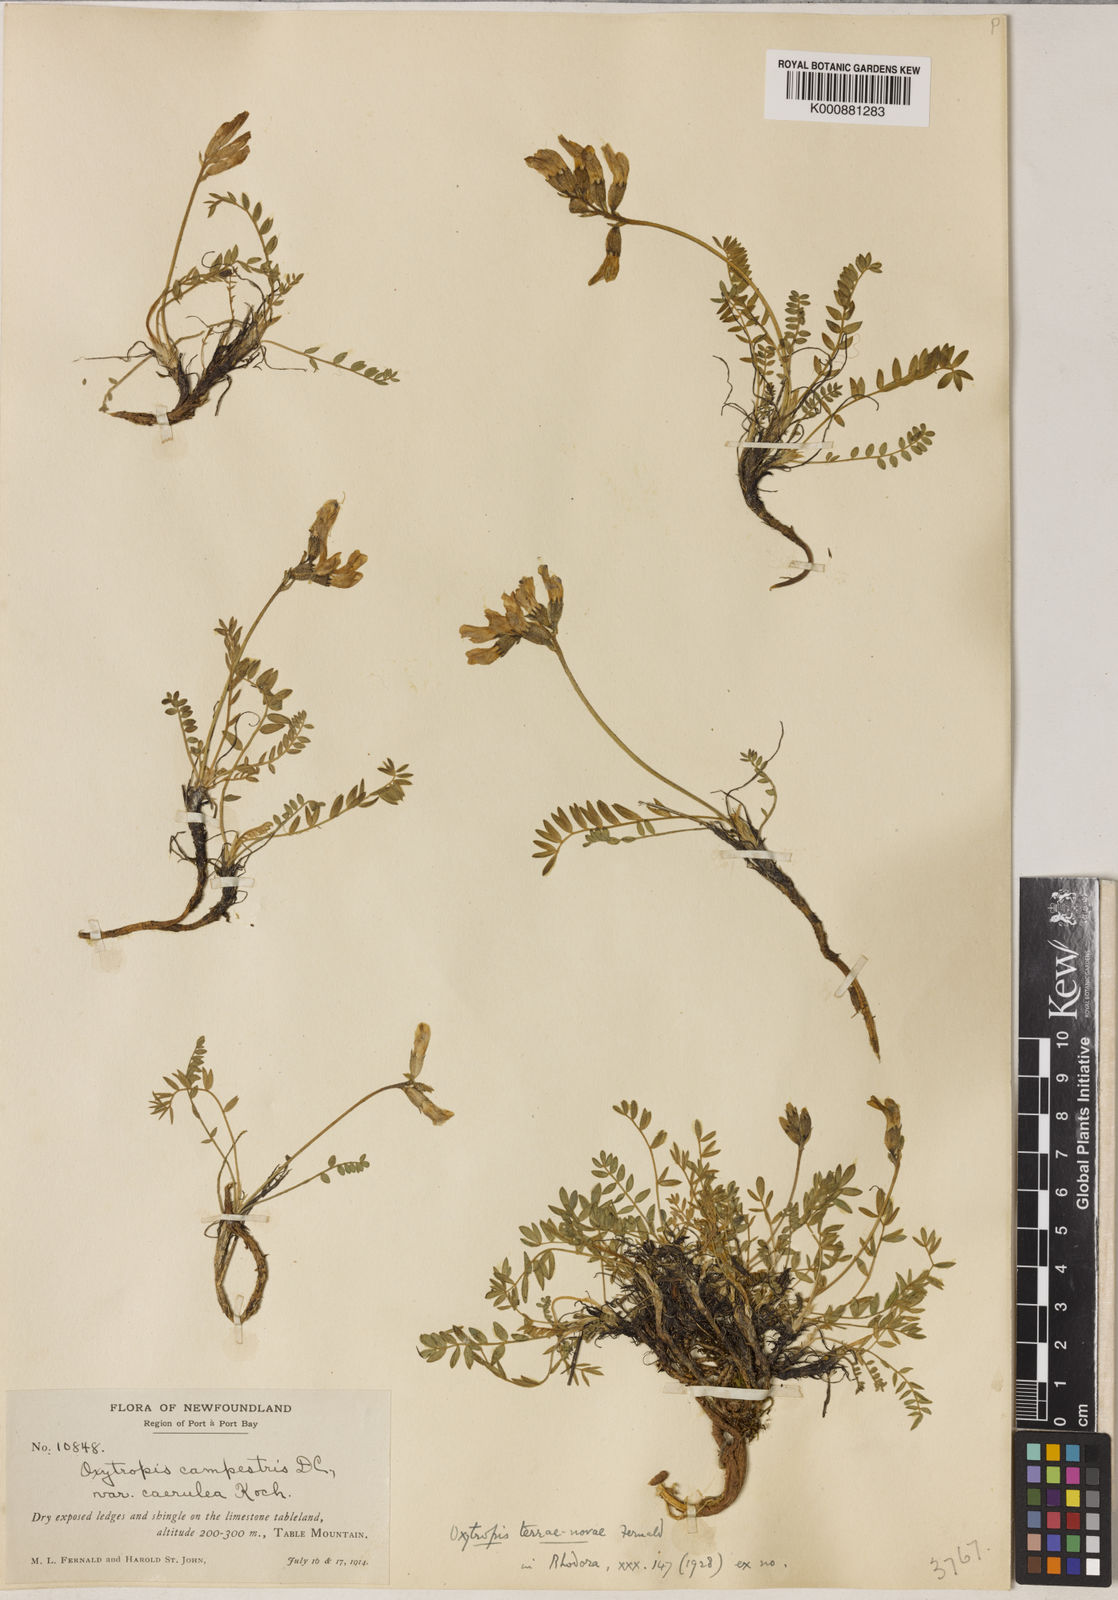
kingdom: Plantae
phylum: Tracheophyta
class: Magnoliopsida
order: Fabales
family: Fabaceae
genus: Oxytropis
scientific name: Oxytropis campestris
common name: Field locoweed
